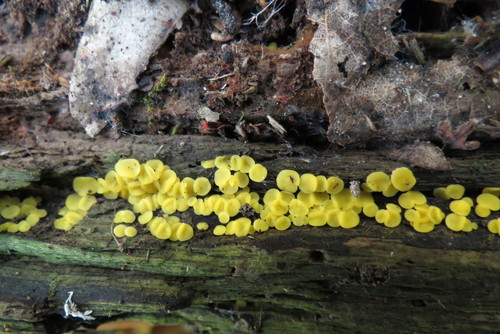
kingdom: Fungi
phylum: Ascomycota
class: Leotiomycetes
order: Helotiales
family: Pezizellaceae
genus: Calycina
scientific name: Calycina citrina
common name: Yellow fairy cups
